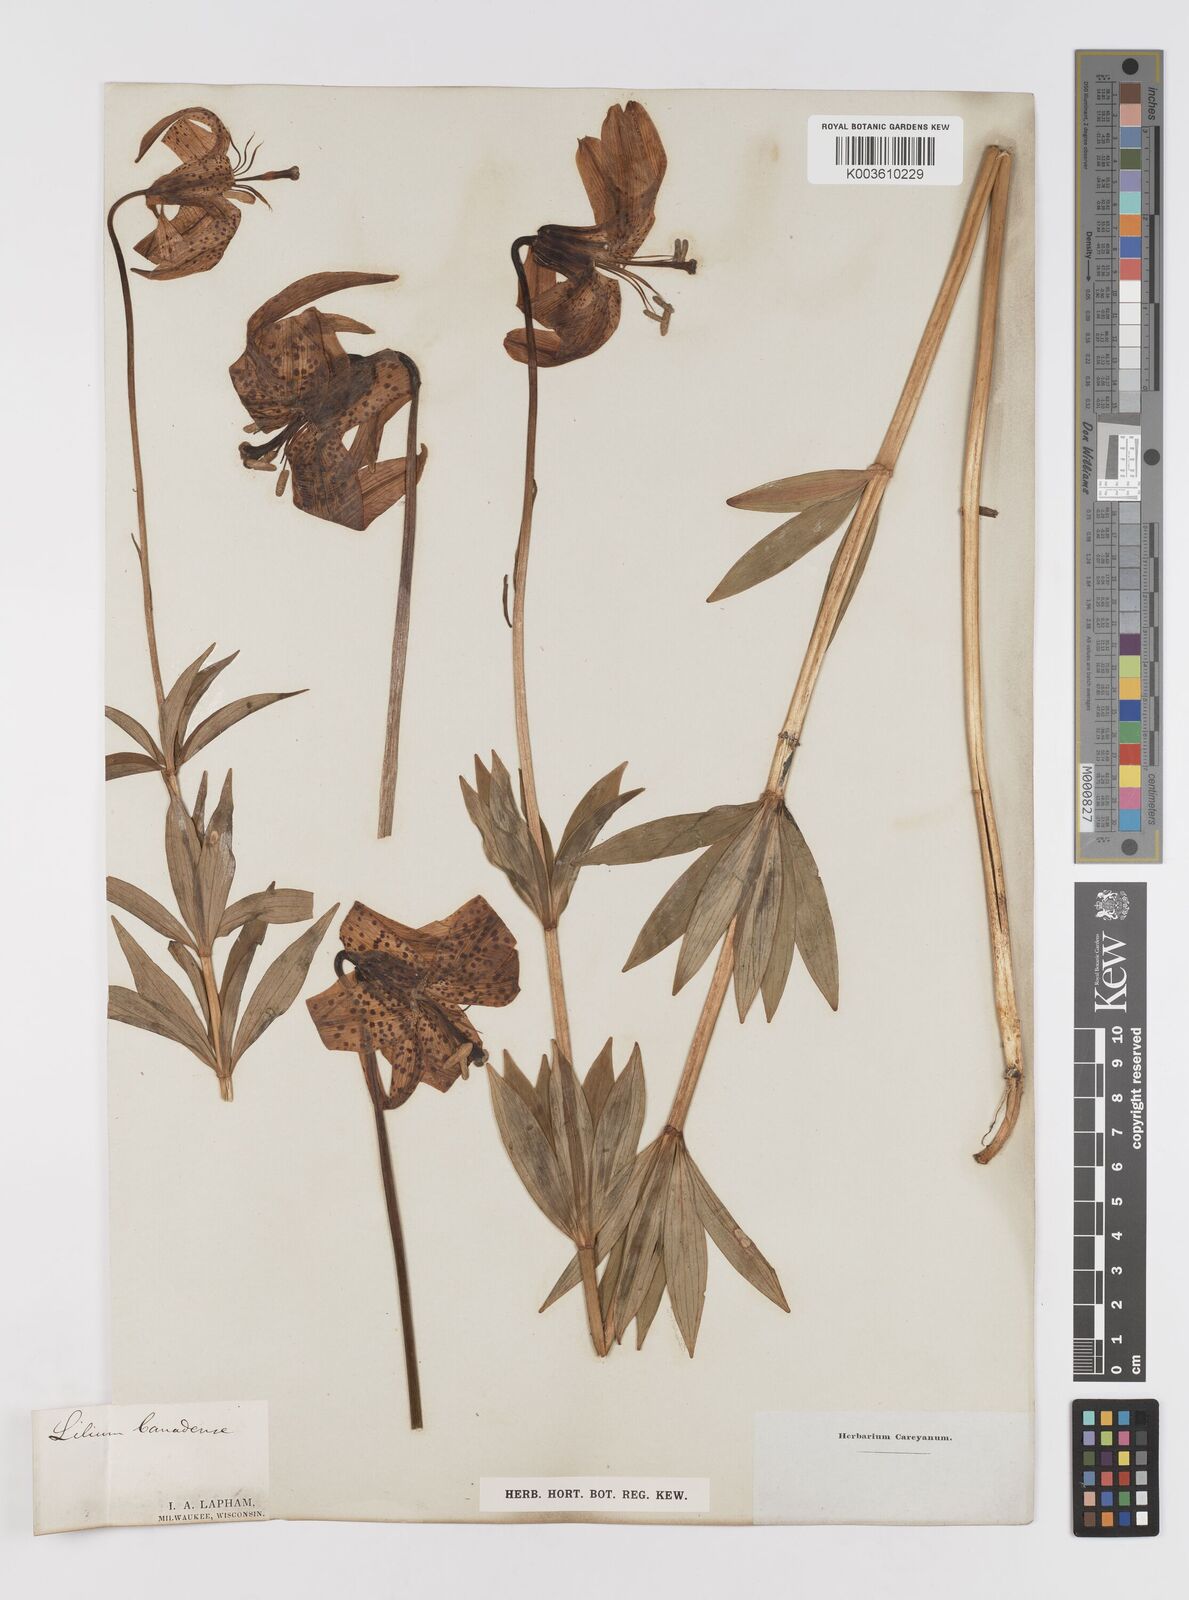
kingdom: Plantae
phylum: Tracheophyta
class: Liliopsida
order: Liliales
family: Liliaceae
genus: Lilium
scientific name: Lilium canadense
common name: Canada lily
